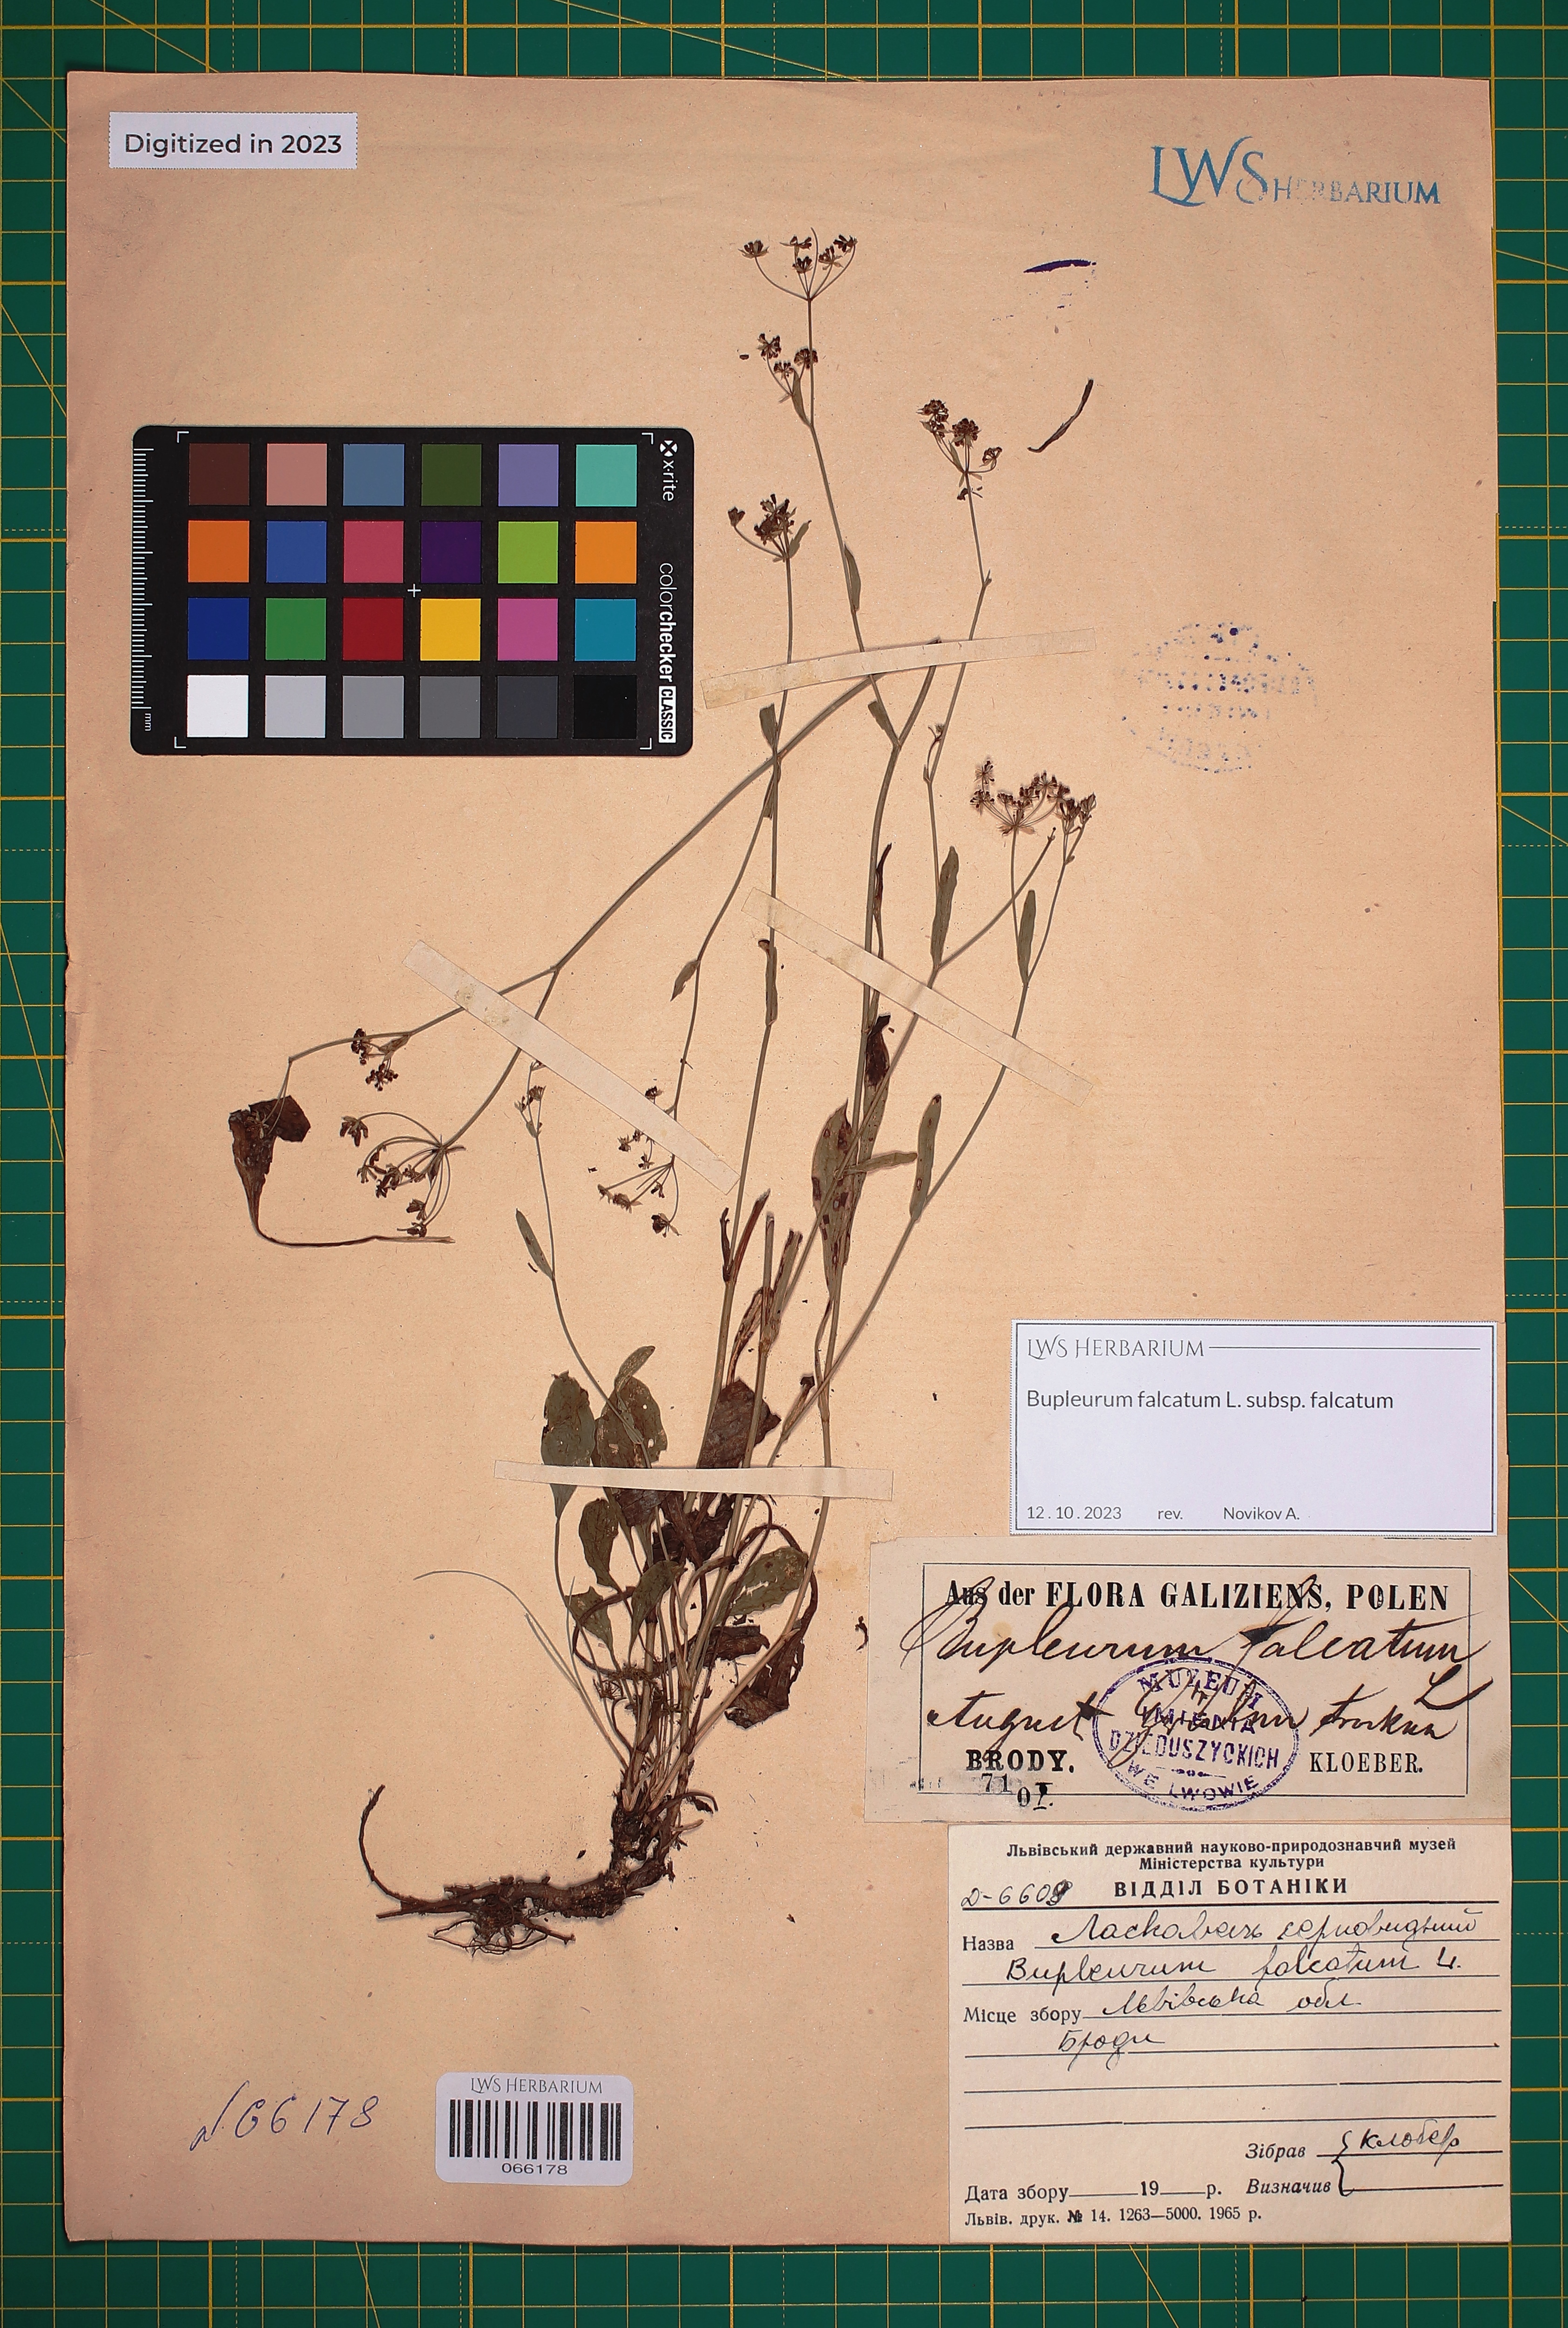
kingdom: Plantae
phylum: Tracheophyta
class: Magnoliopsida
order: Apiales
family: Apiaceae
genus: Bupleurum
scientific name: Bupleurum falcatum
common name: Sickle-leaved hare's-ear
